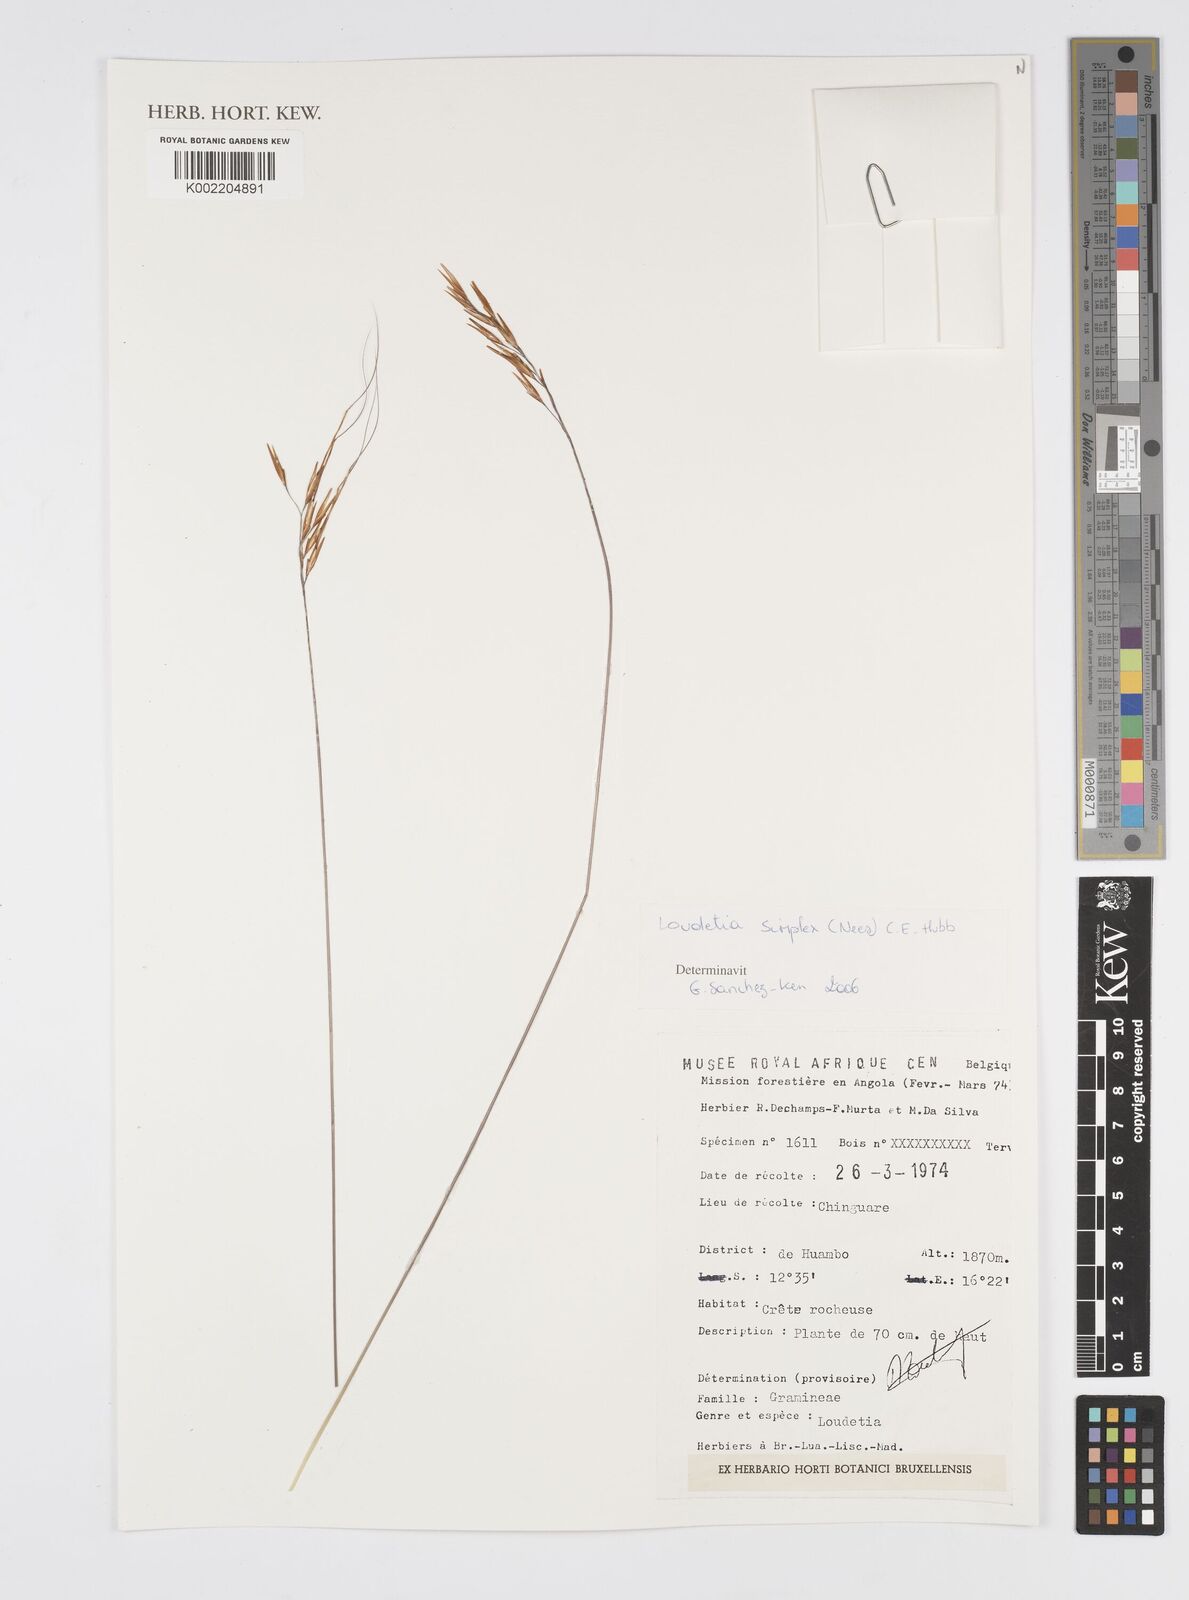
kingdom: Plantae
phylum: Tracheophyta
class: Liliopsida
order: Poales
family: Poaceae
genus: Loudetia
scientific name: Loudetia simplex
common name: Common russet grass
